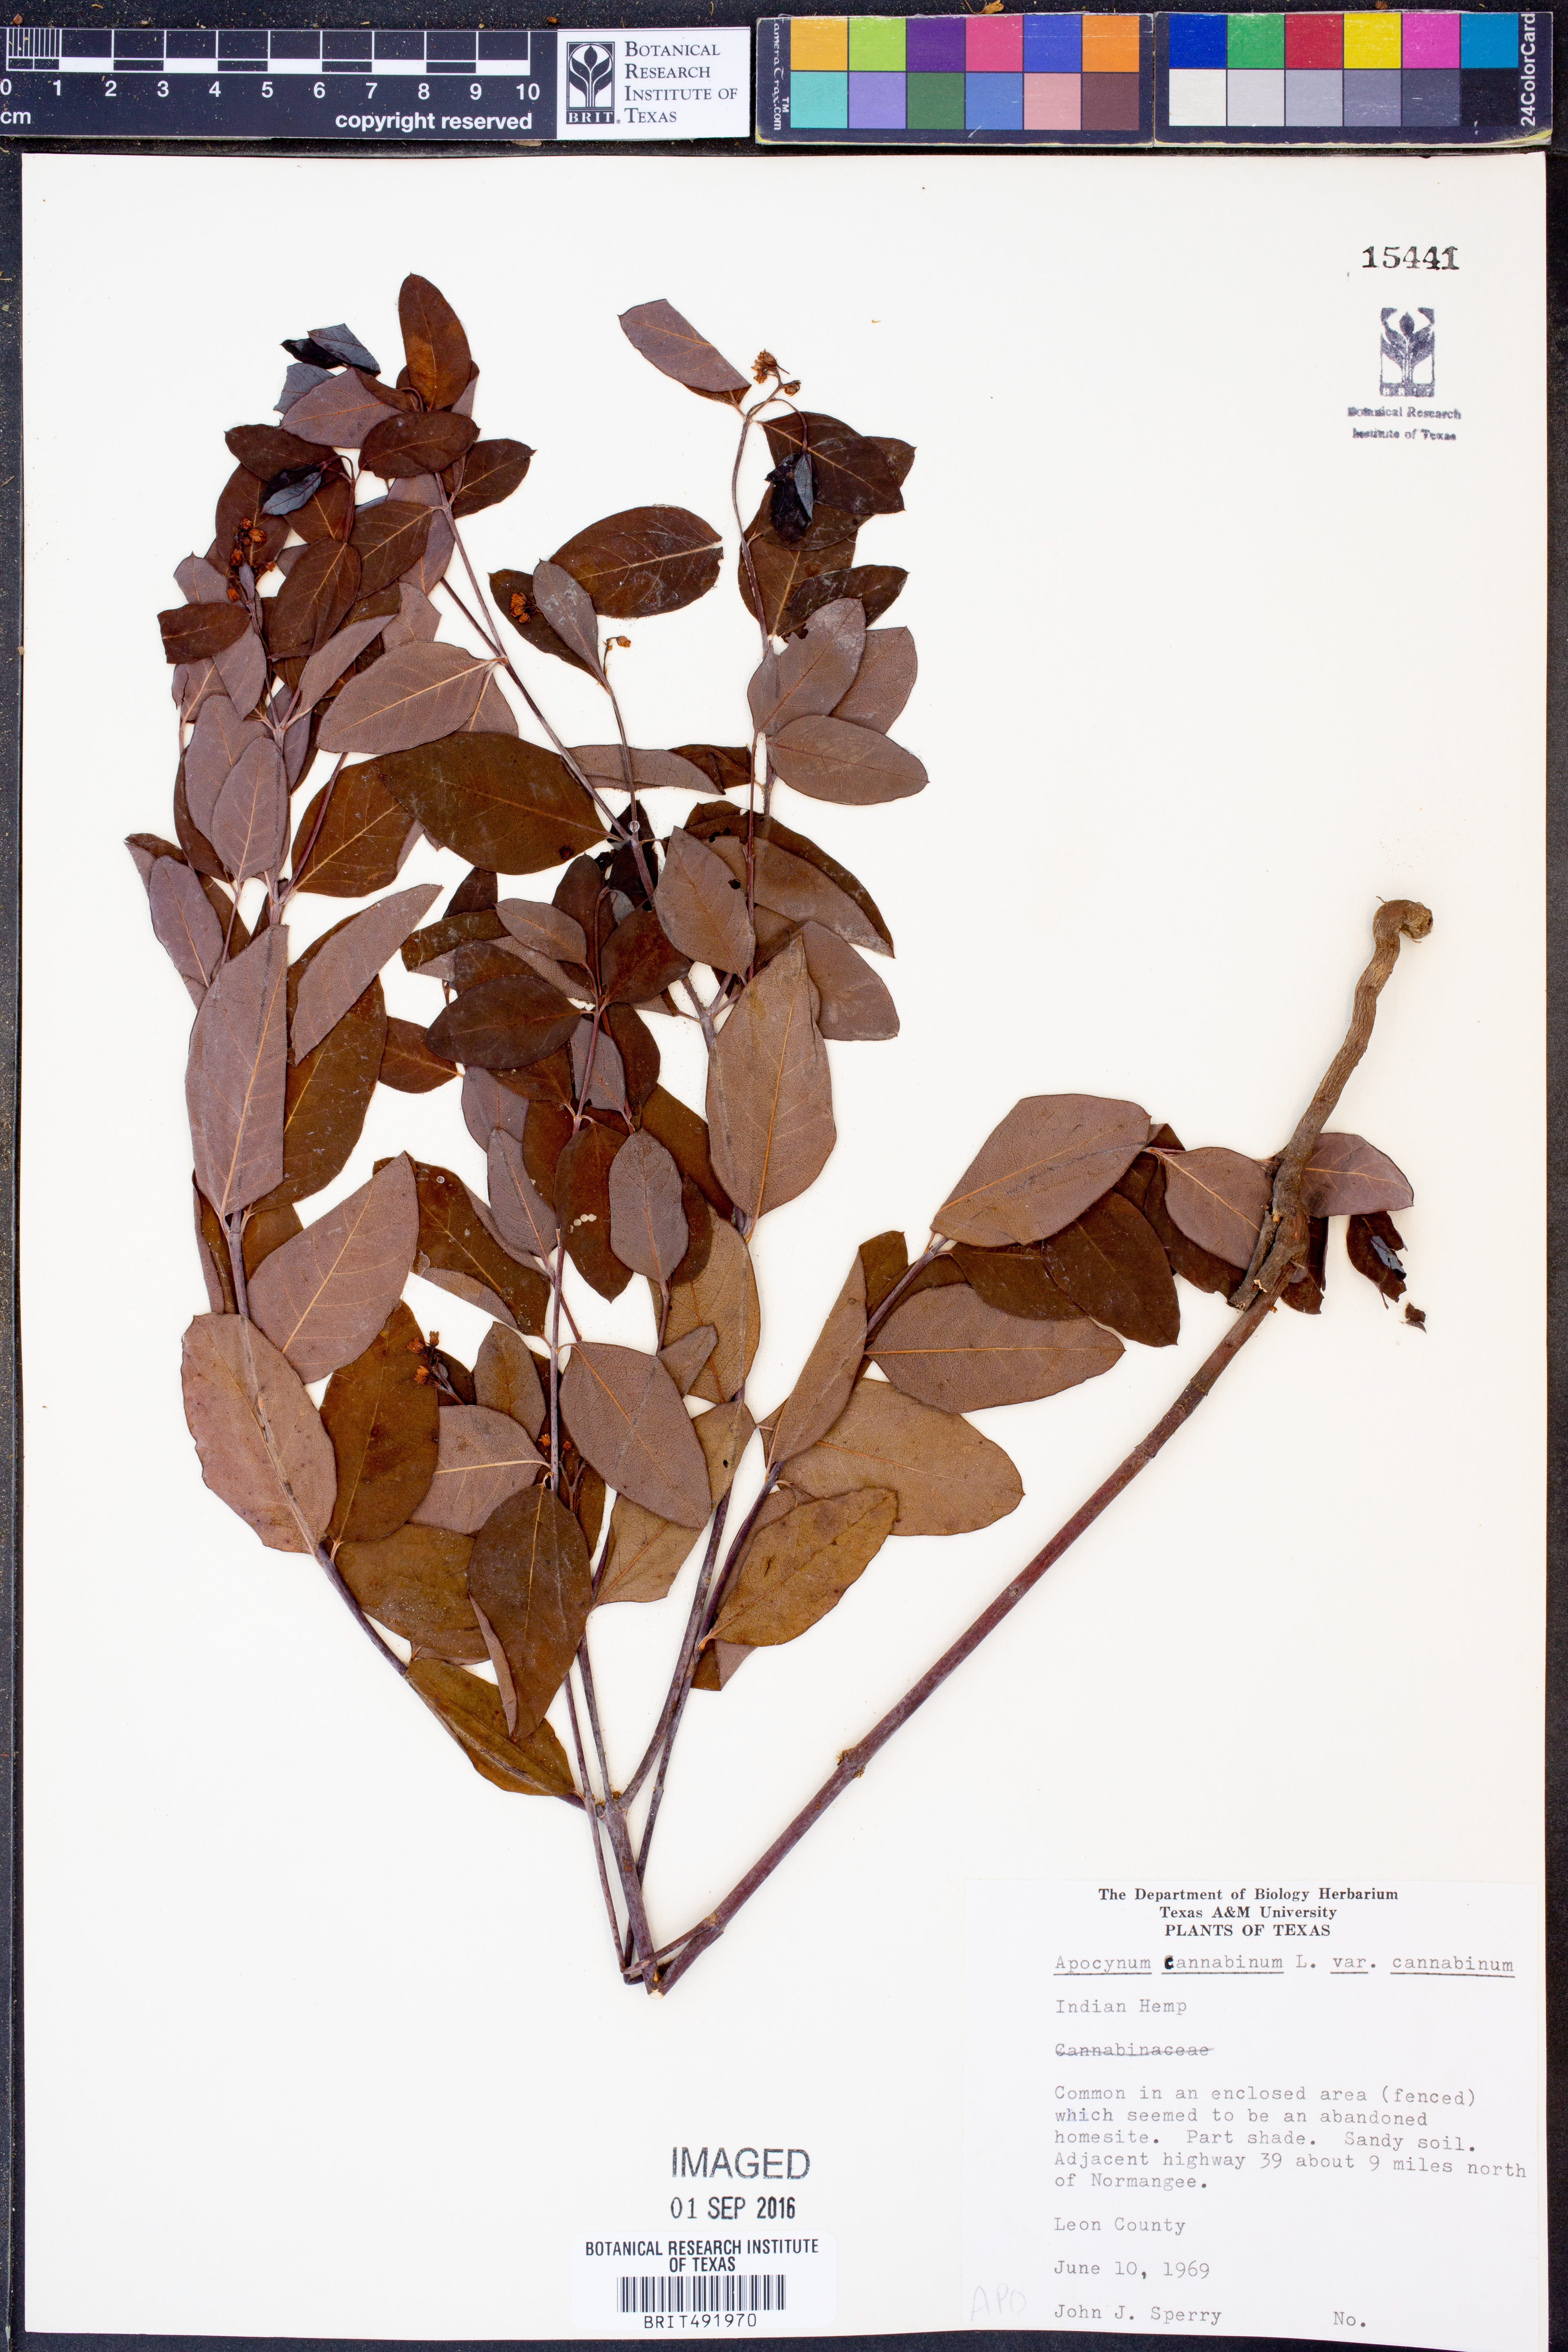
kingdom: Plantae
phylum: Tracheophyta
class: Magnoliopsida
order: Gentianales
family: Apocynaceae
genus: Apocynum
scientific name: Apocynum cannabinum
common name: Hemp dogbane
